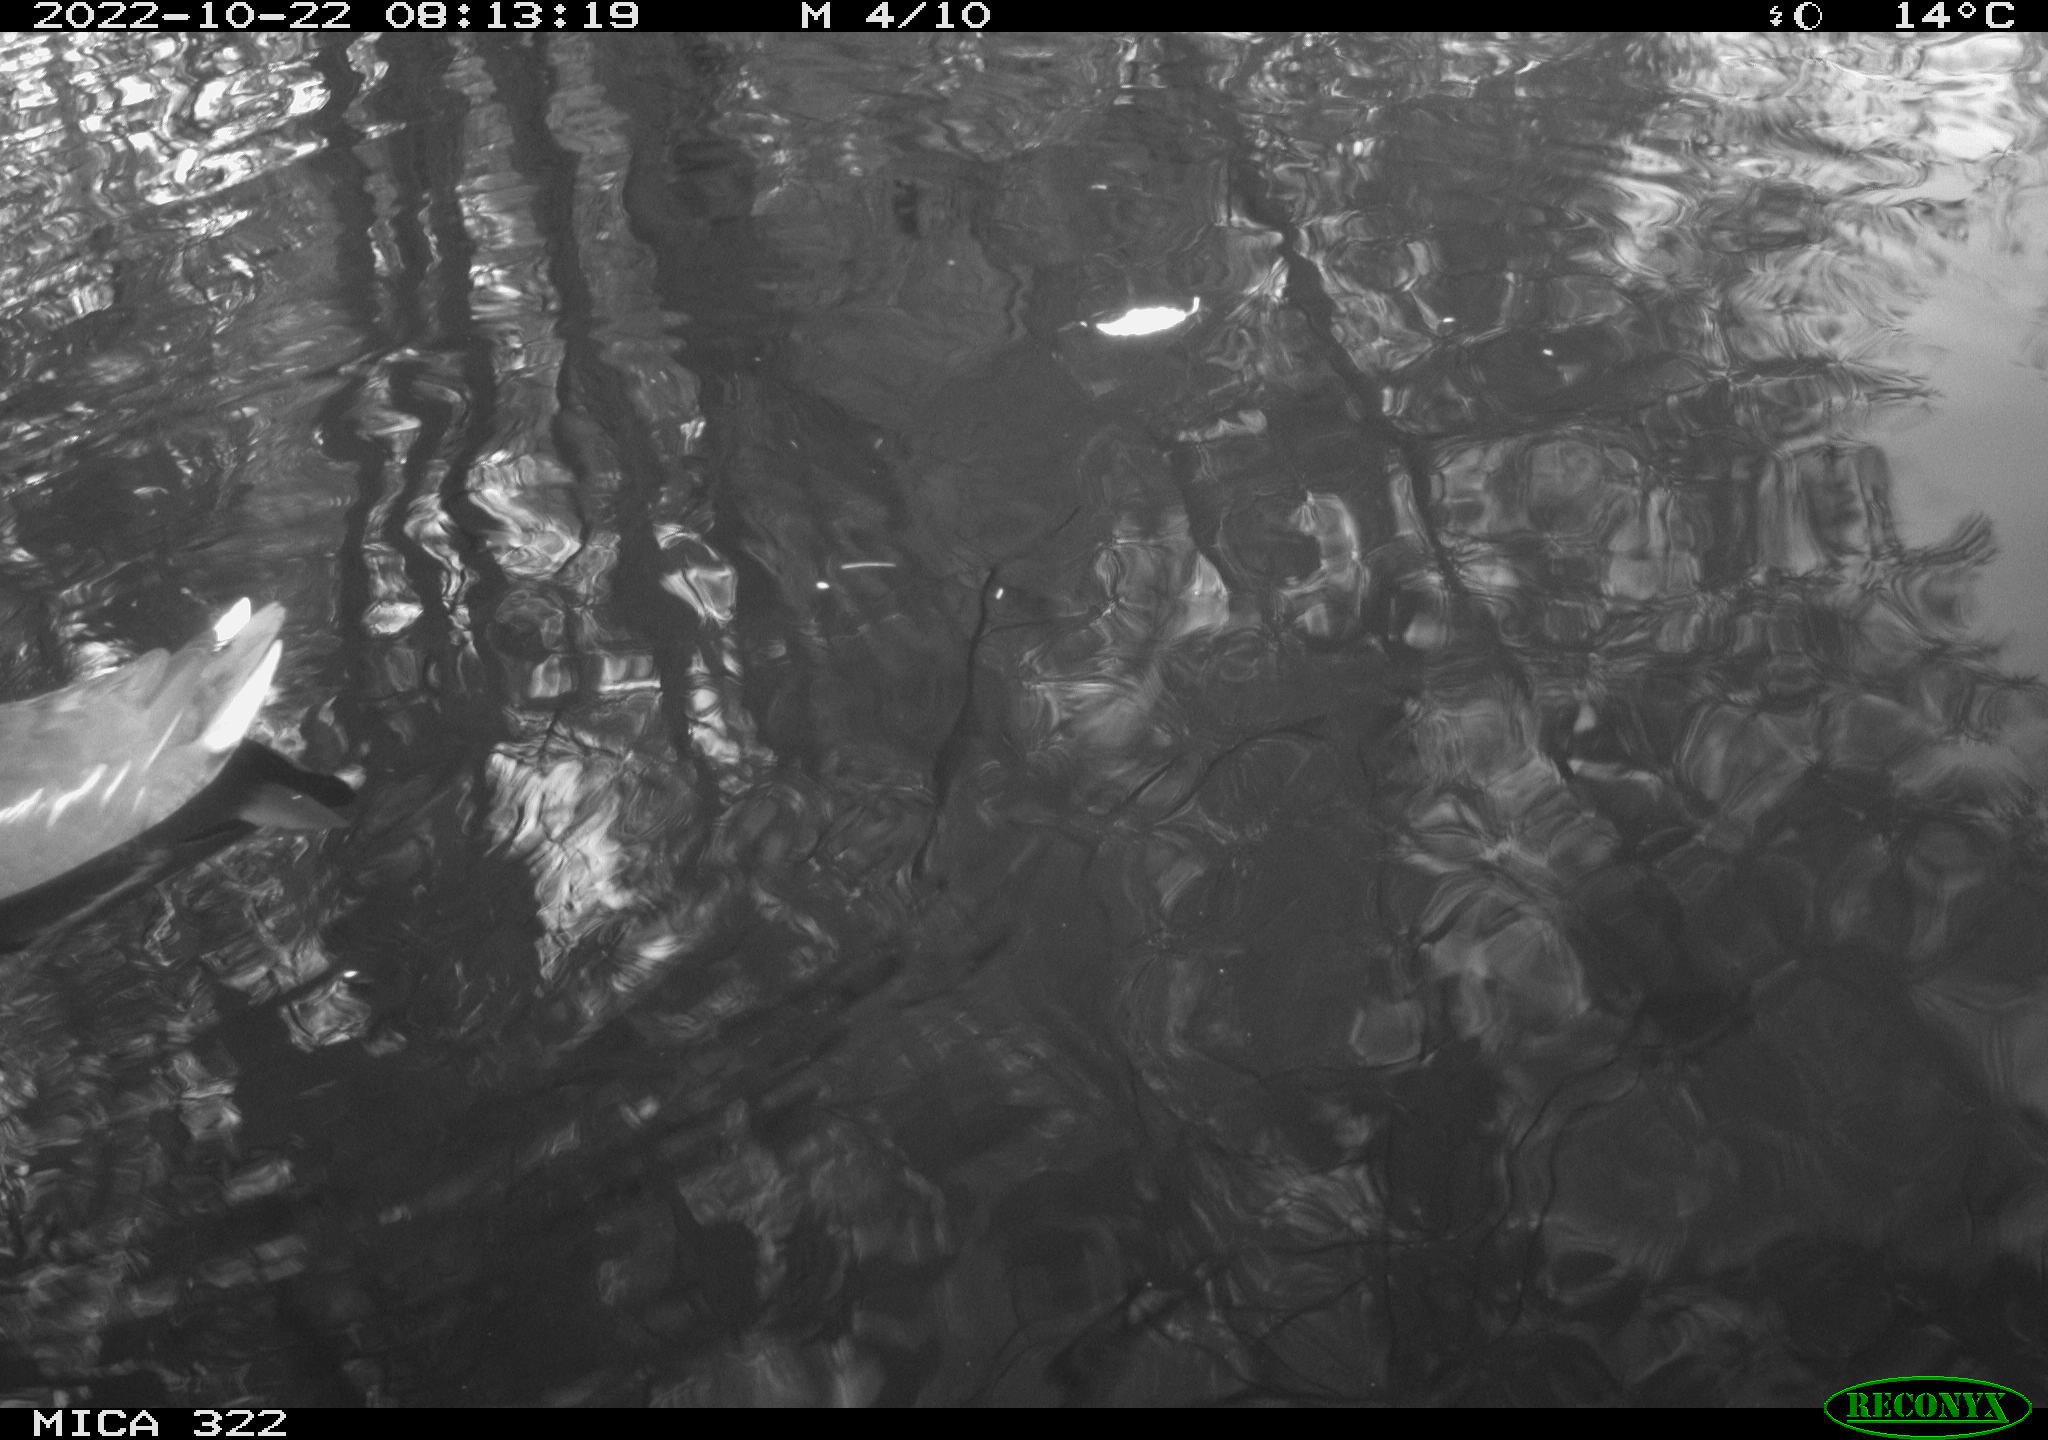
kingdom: Animalia
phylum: Chordata
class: Aves
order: Pelecaniformes
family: Ardeidae
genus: Ardea
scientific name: Ardea cinerea
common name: Grey heron
